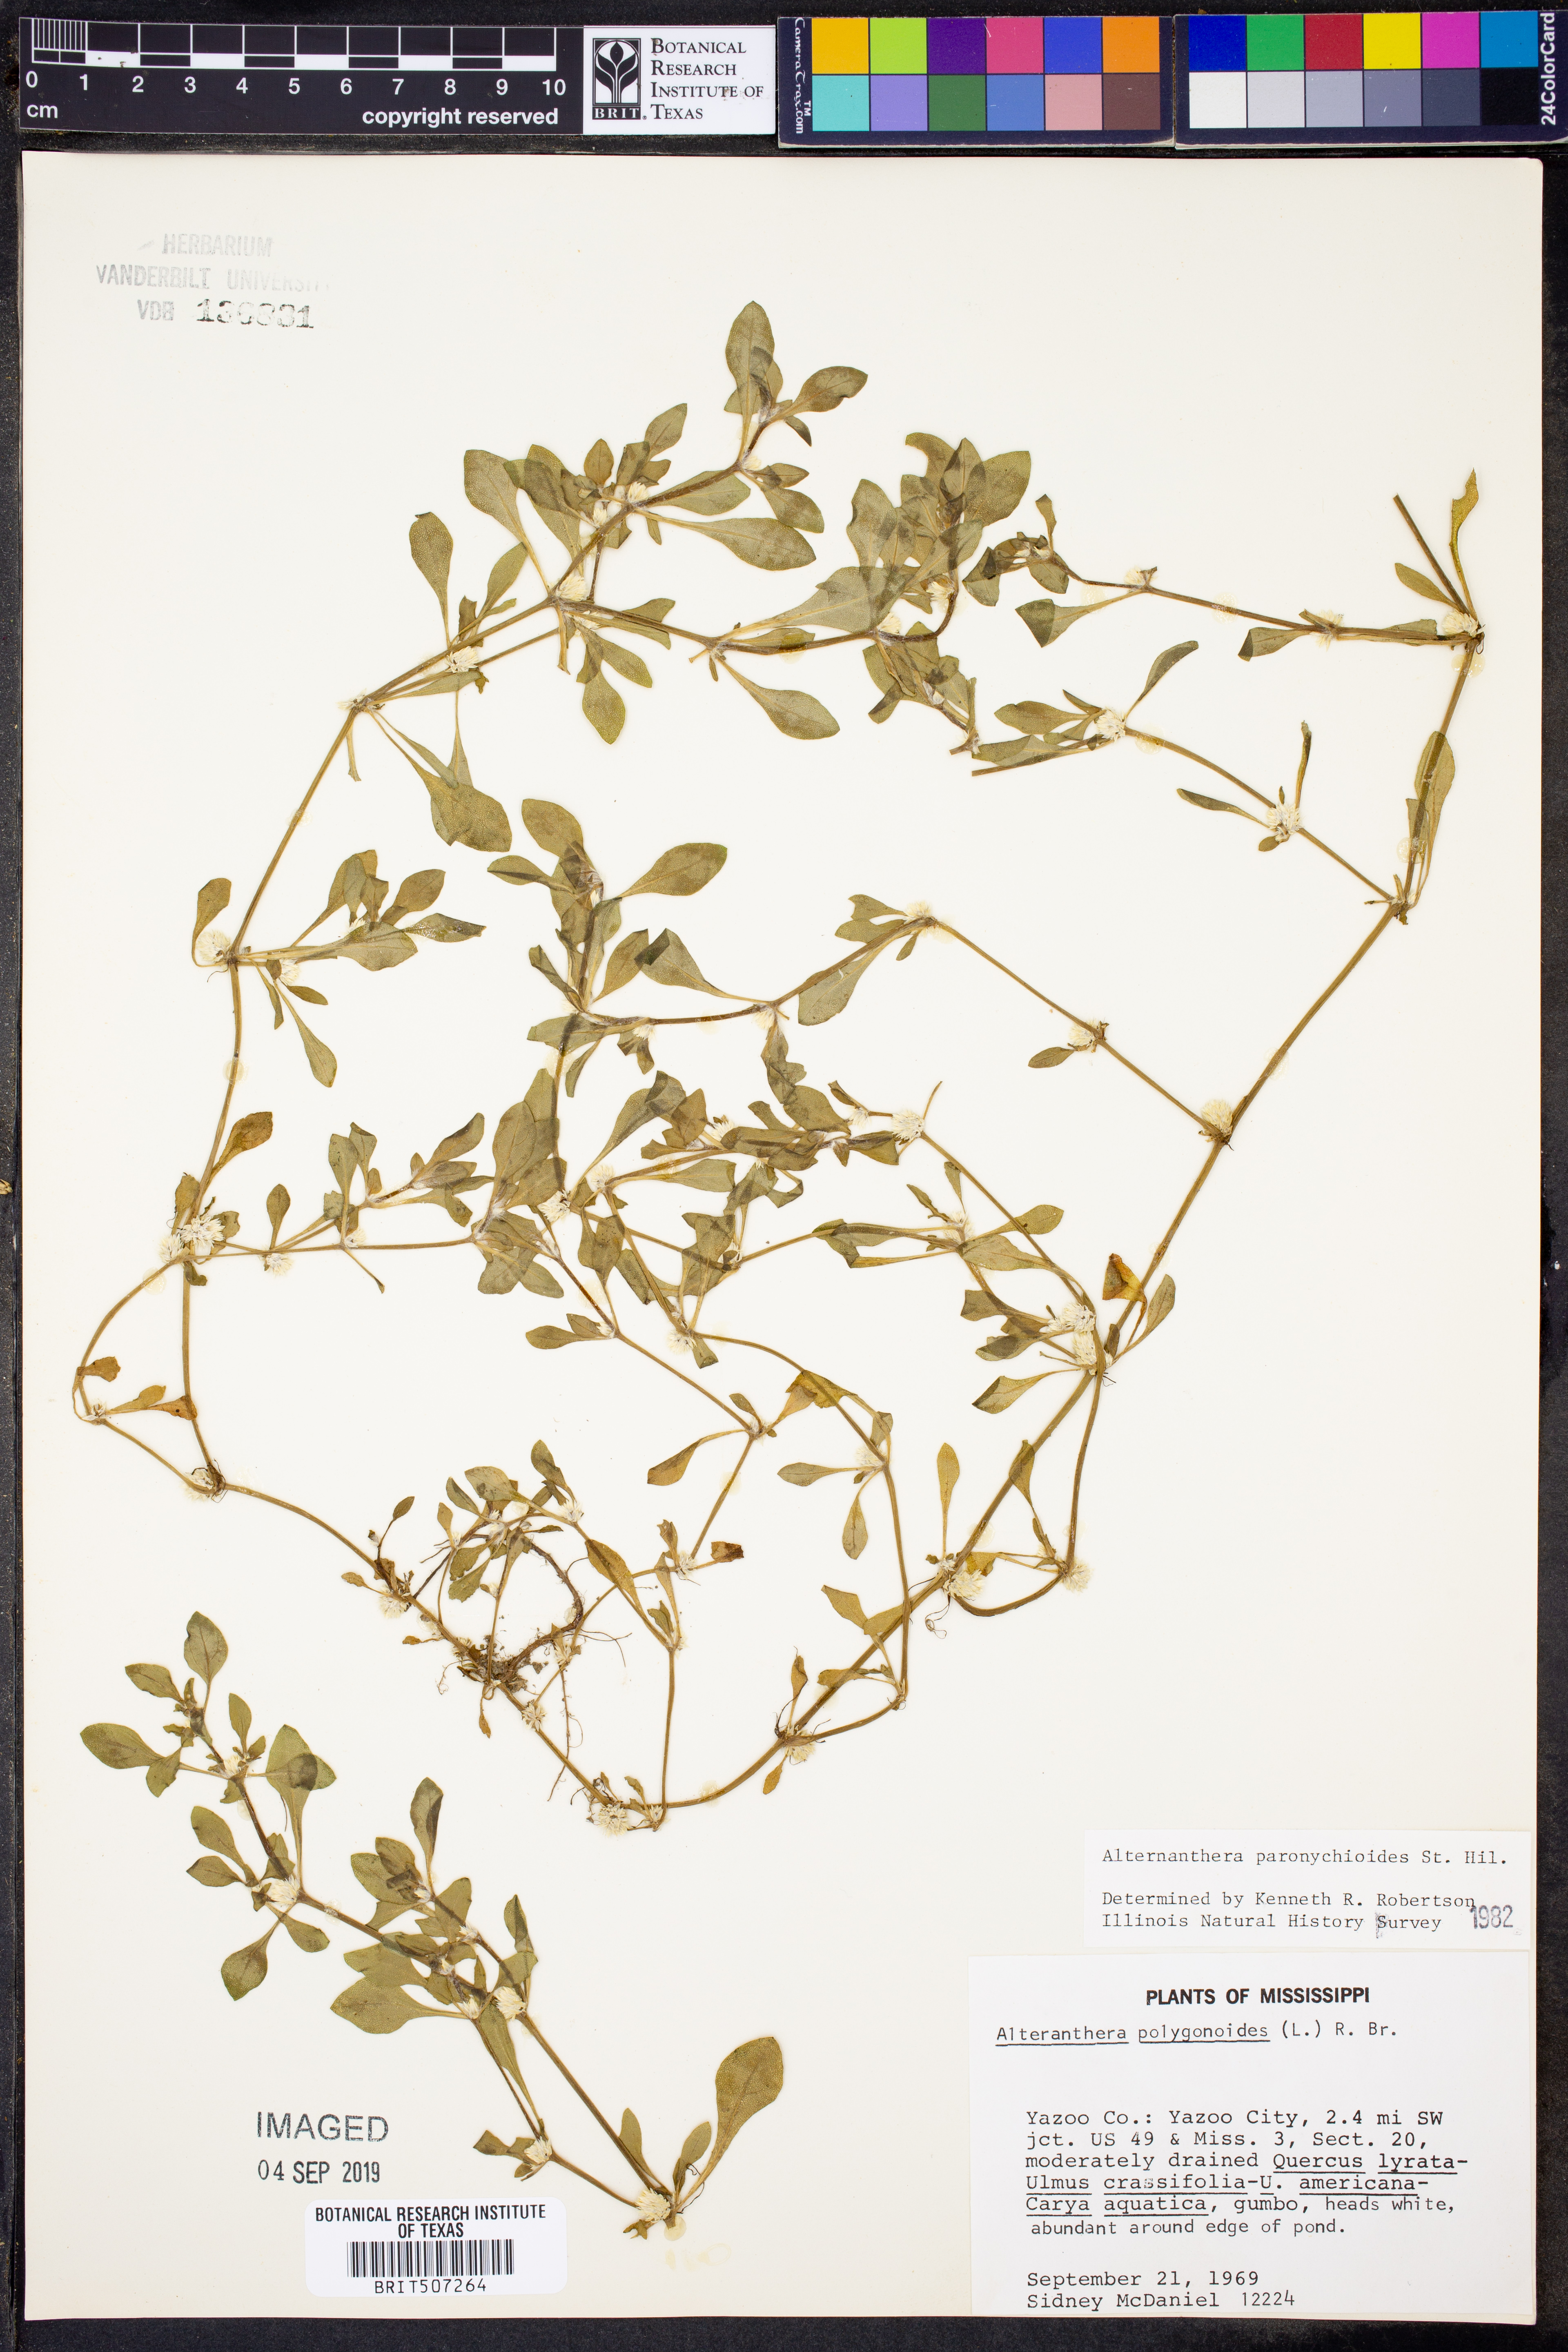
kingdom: Plantae
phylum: Tracheophyta
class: Magnoliopsida
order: Caryophyllales
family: Amaranthaceae
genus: Alternanthera
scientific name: Alternanthera paronychioides
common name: Smooth joyweed
